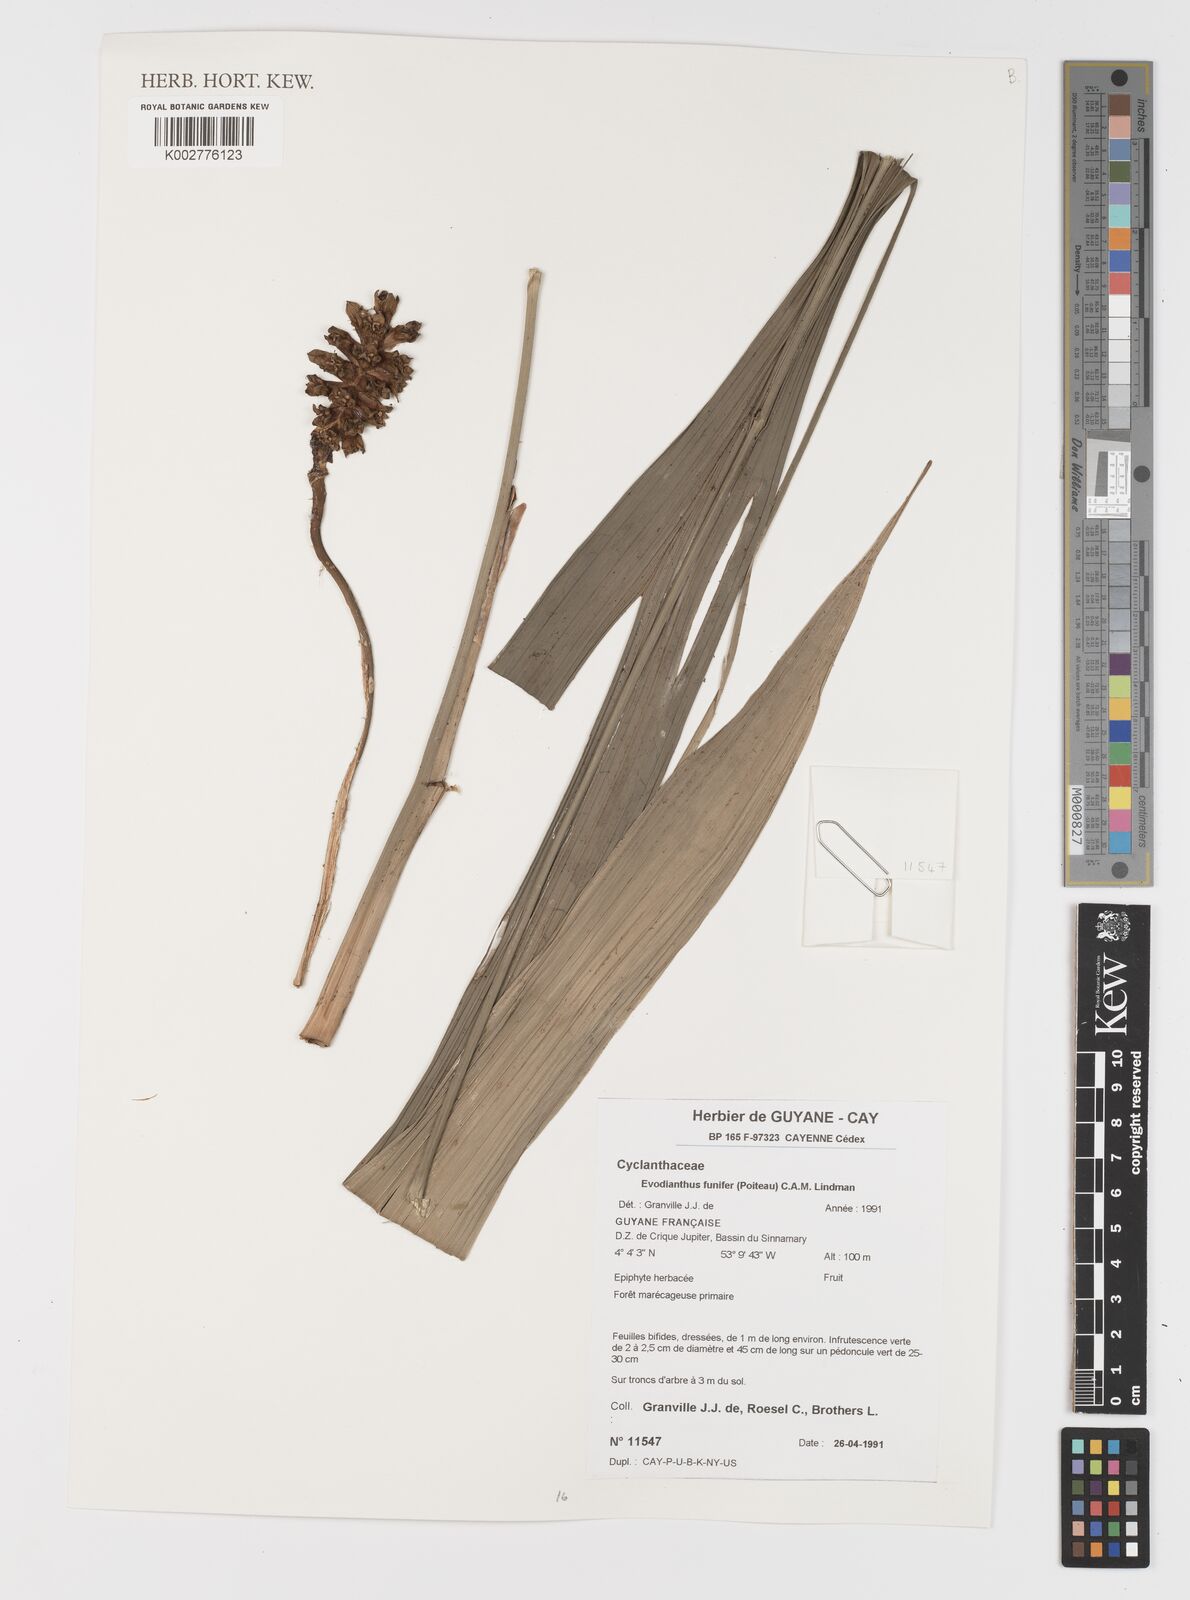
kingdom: Plantae
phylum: Tracheophyta
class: Liliopsida
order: Pandanales
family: Cyclanthaceae
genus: Evodianthus
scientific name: Evodianthus funifer
